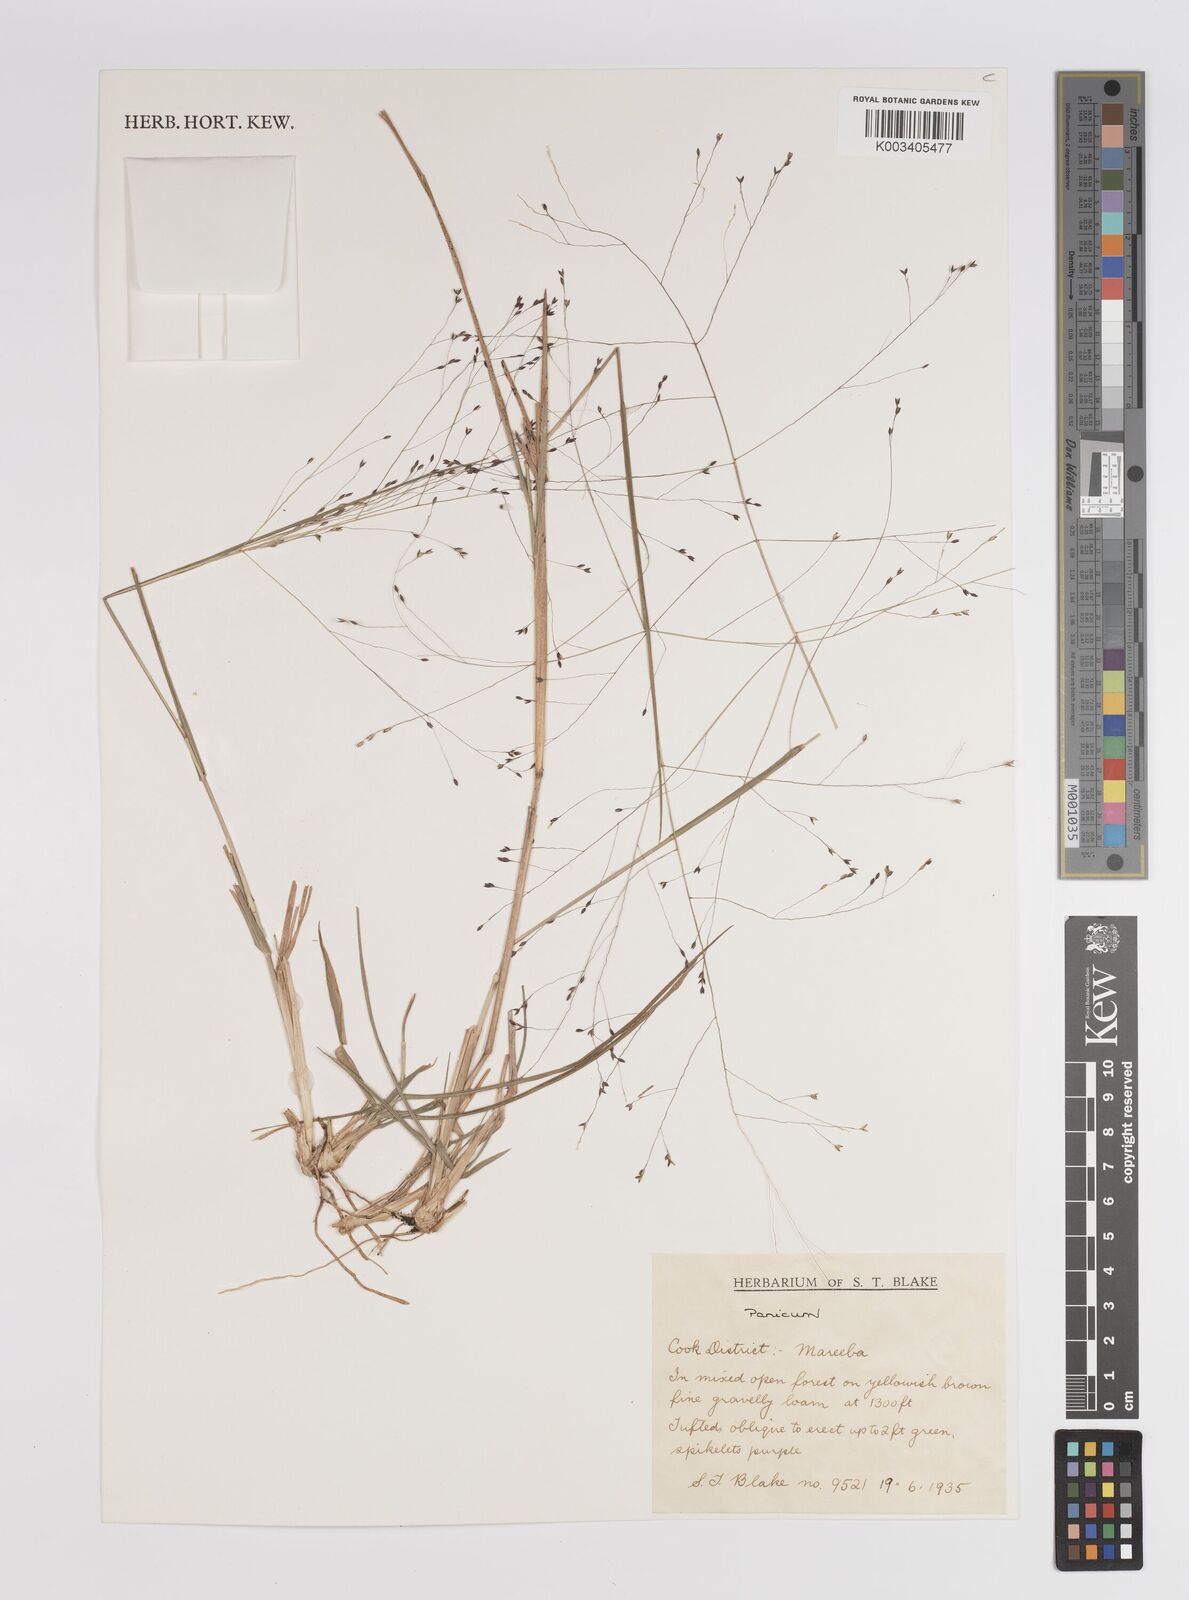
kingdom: Plantae
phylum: Tracheophyta
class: Liliopsida
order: Poales
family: Poaceae
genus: Panicum
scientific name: Panicum
